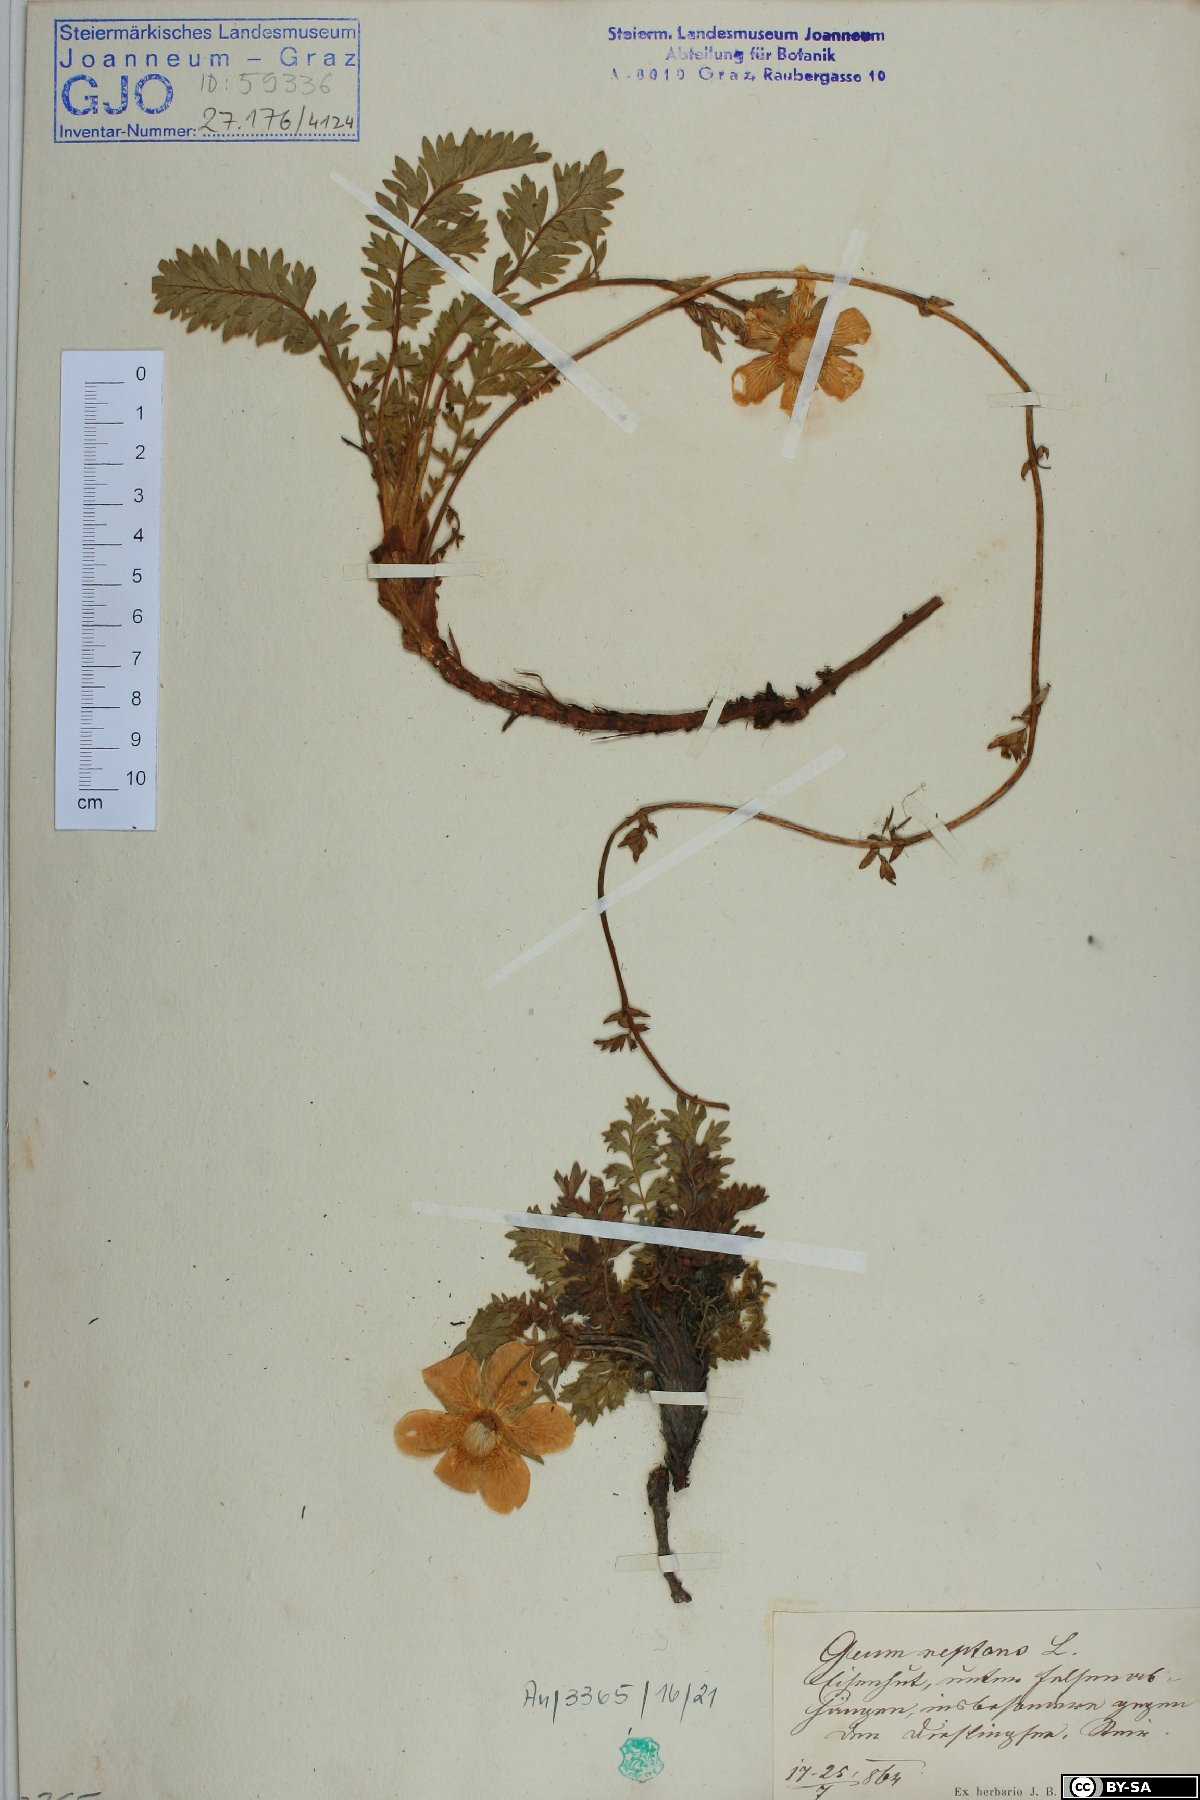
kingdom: Plantae
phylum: Tracheophyta
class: Magnoliopsida
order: Rosales
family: Rosaceae
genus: Geum
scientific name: Geum reptans
